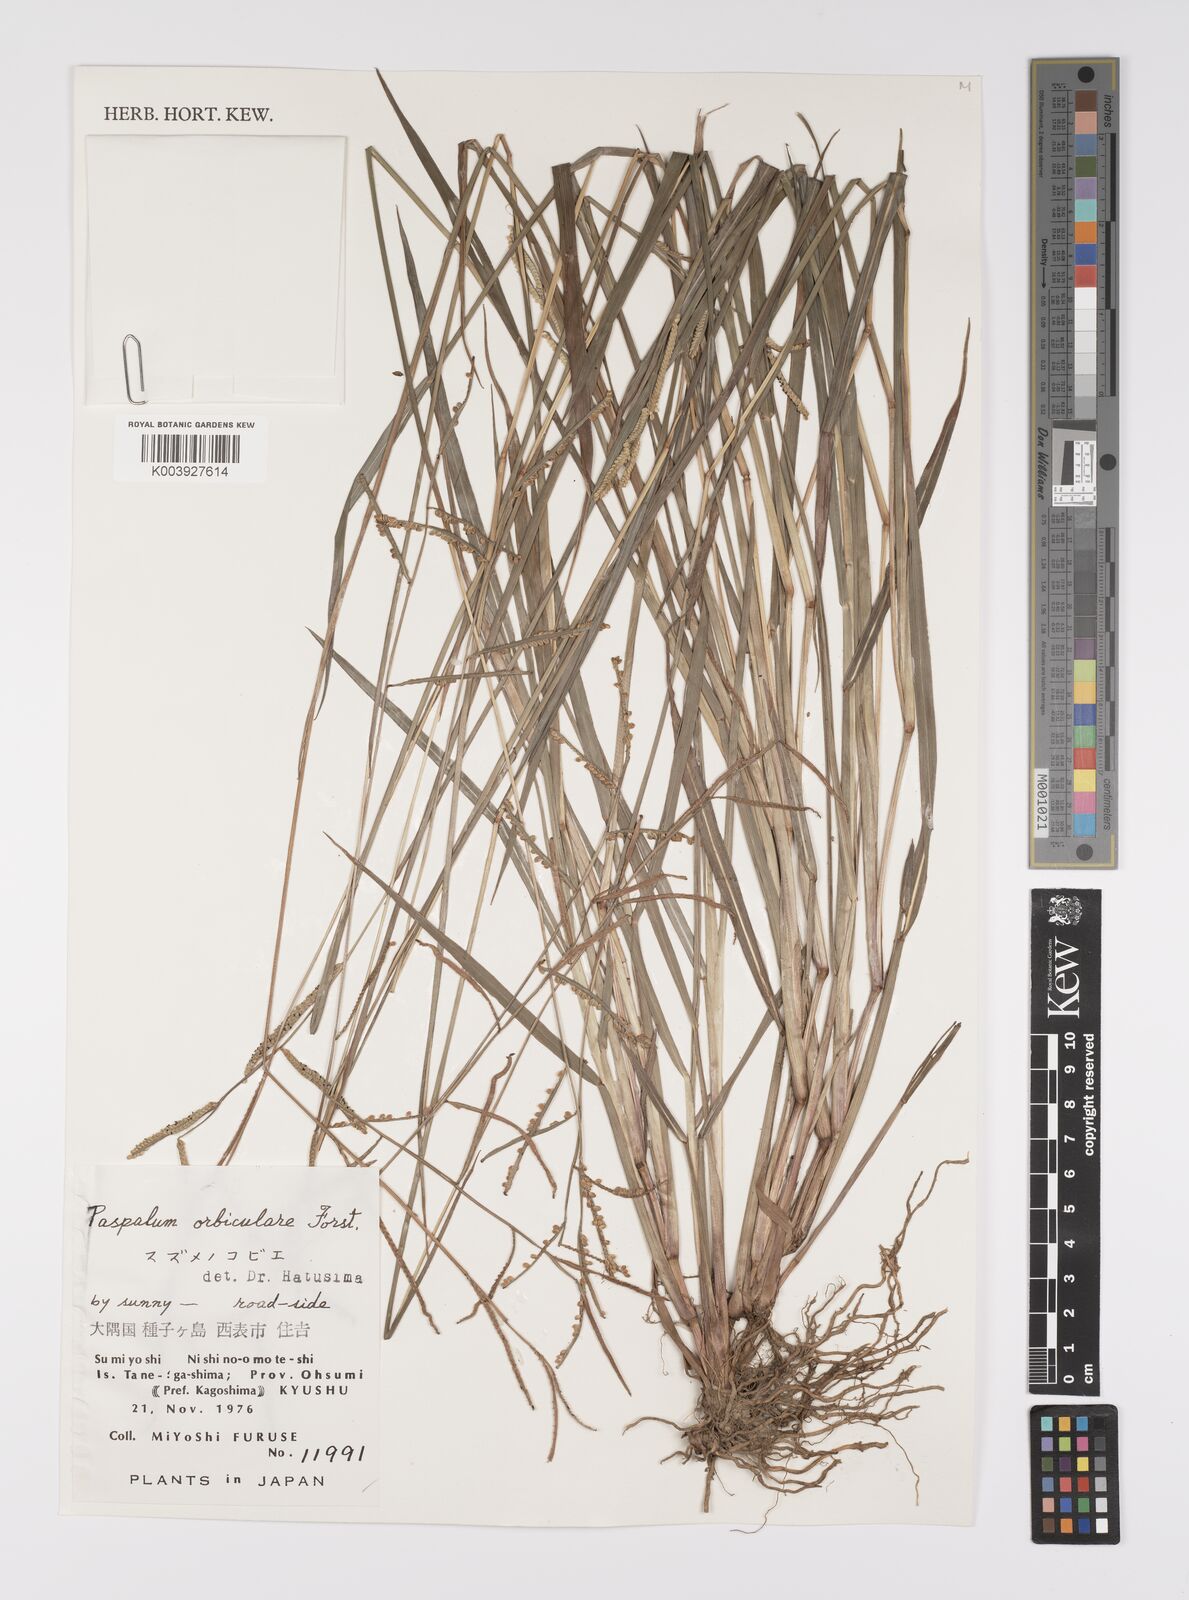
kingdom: Plantae
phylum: Tracheophyta
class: Liliopsida
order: Poales
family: Poaceae
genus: Paspalum
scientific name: Paspalum scrobiculatum
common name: Kodo millet
